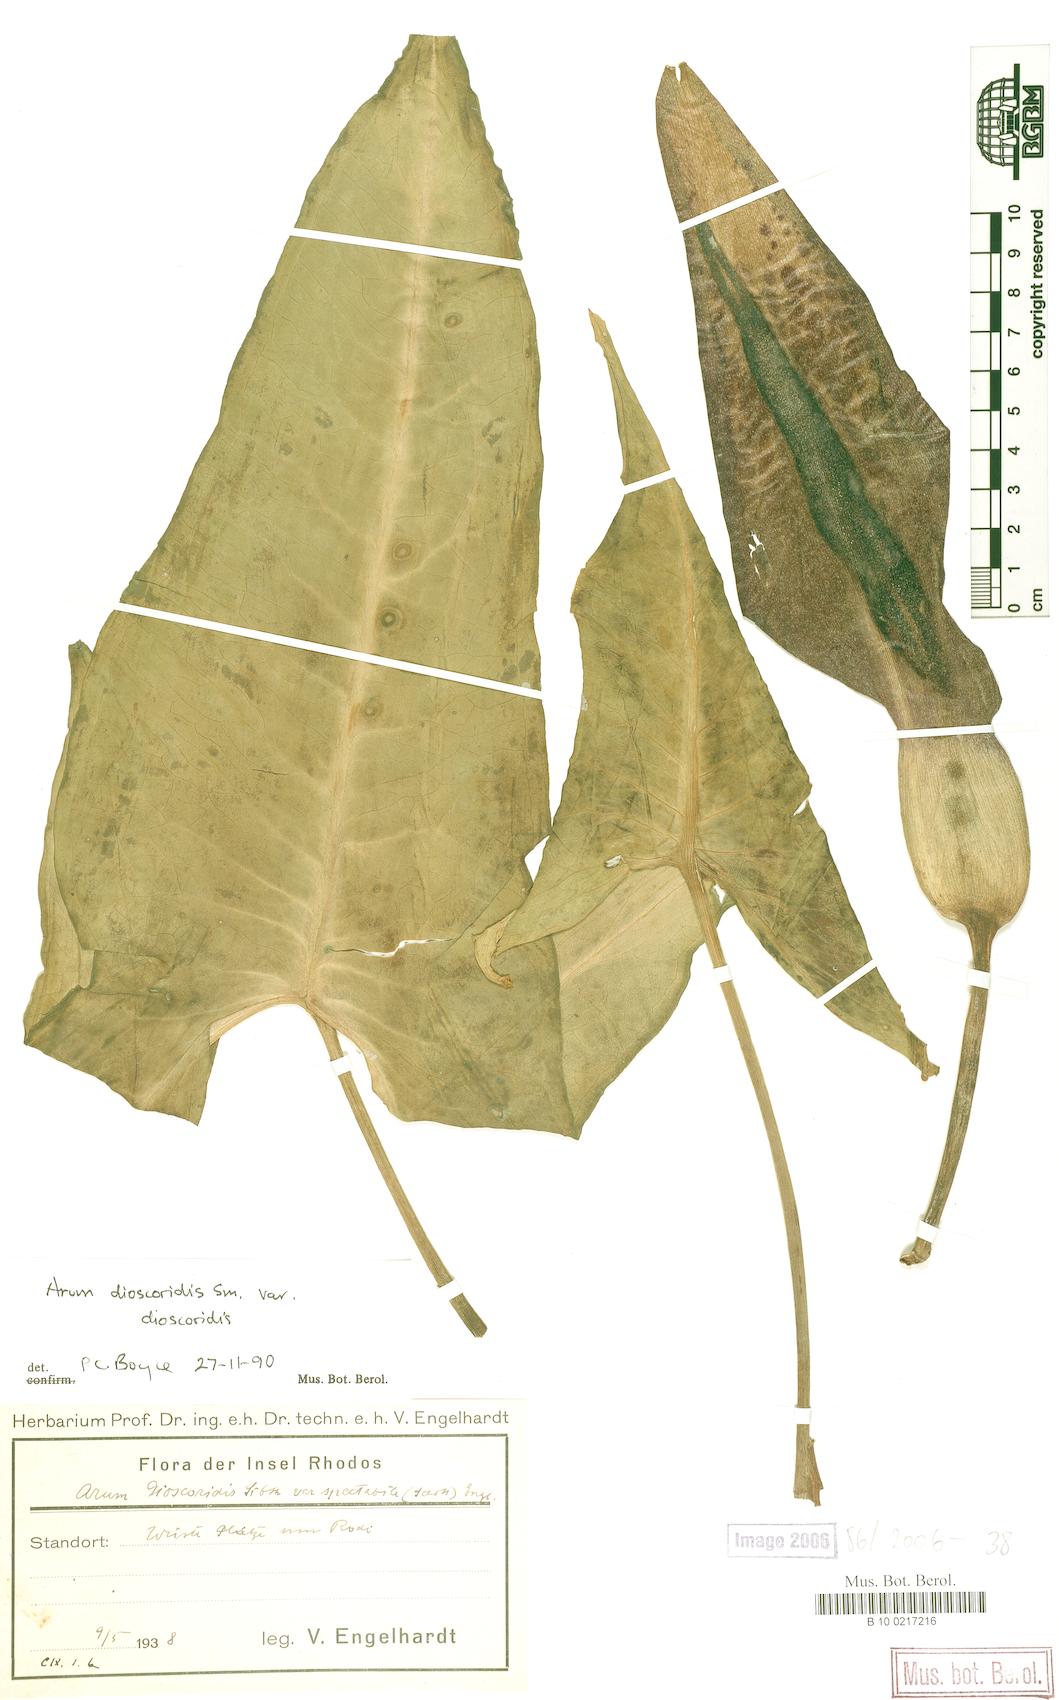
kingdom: Plantae
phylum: Tracheophyta
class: Liliopsida
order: Alismatales
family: Araceae
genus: Arum
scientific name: Arum dioscoridis
